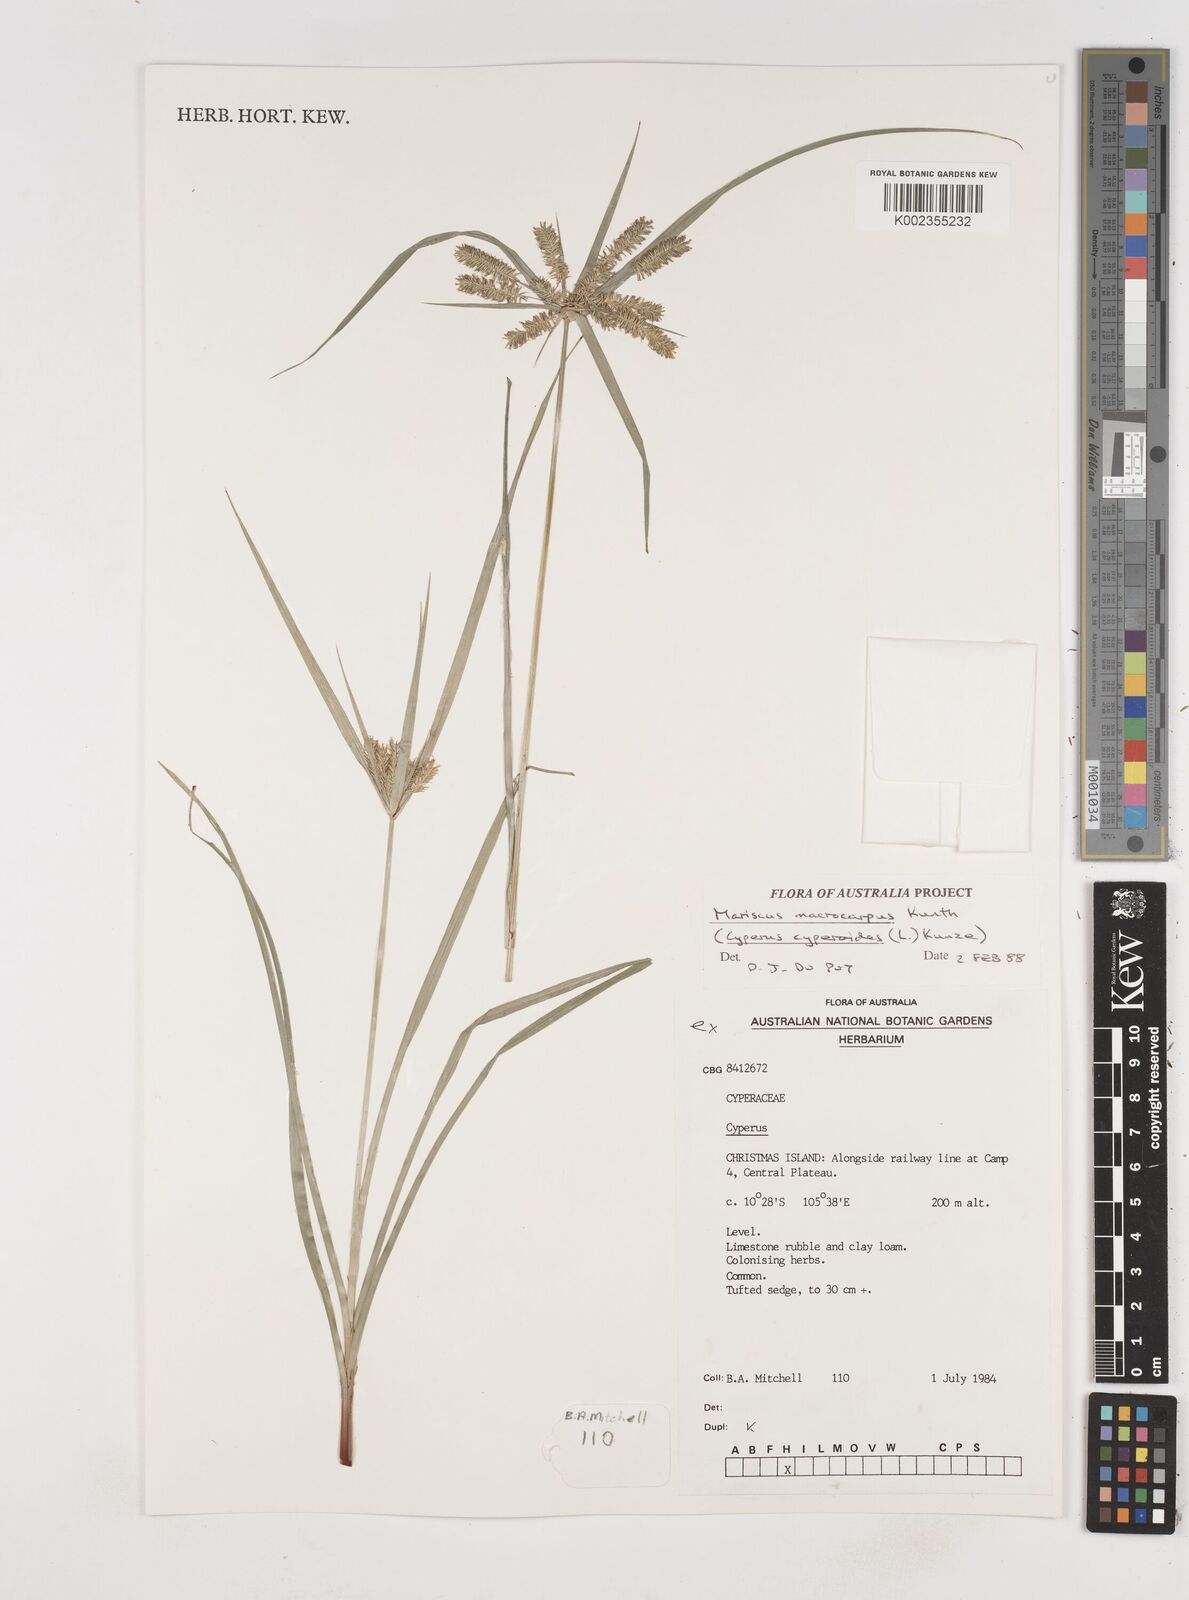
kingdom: Plantae
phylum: Tracheophyta
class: Liliopsida
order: Poales
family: Cyperaceae
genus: Cyperus
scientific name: Cyperus cyperinus
